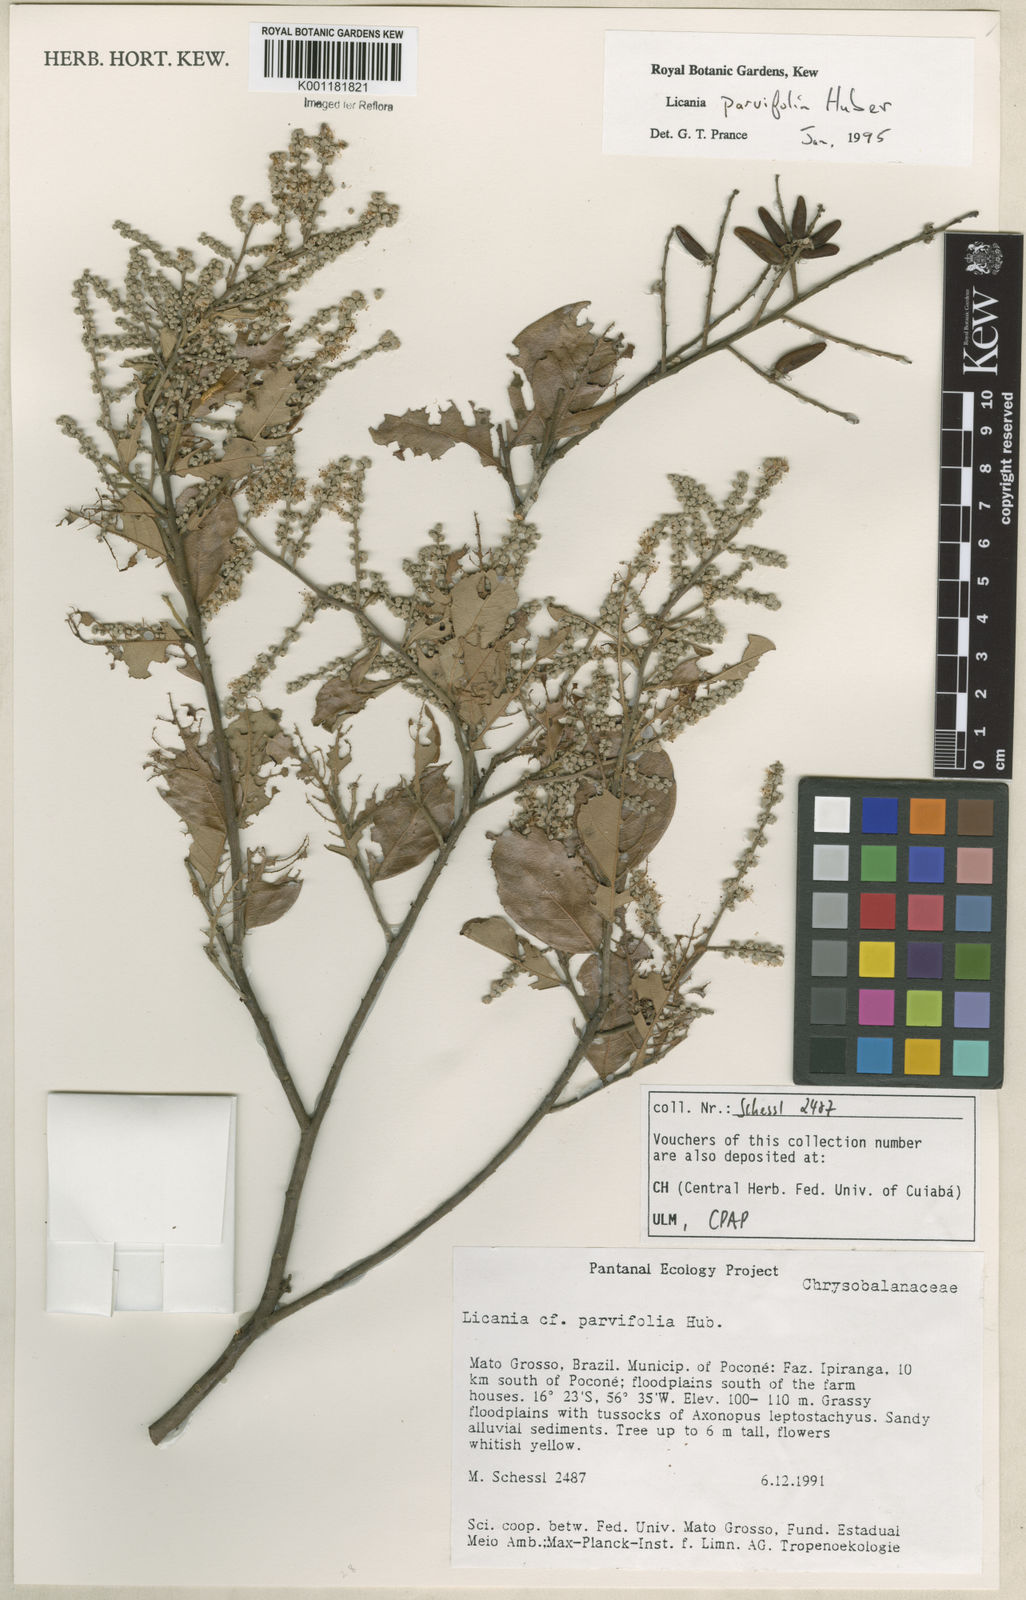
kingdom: Plantae
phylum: Tracheophyta
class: Magnoliopsida
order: Malpighiales
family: Chrysobalanaceae
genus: Licania
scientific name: Licania parvifolia
